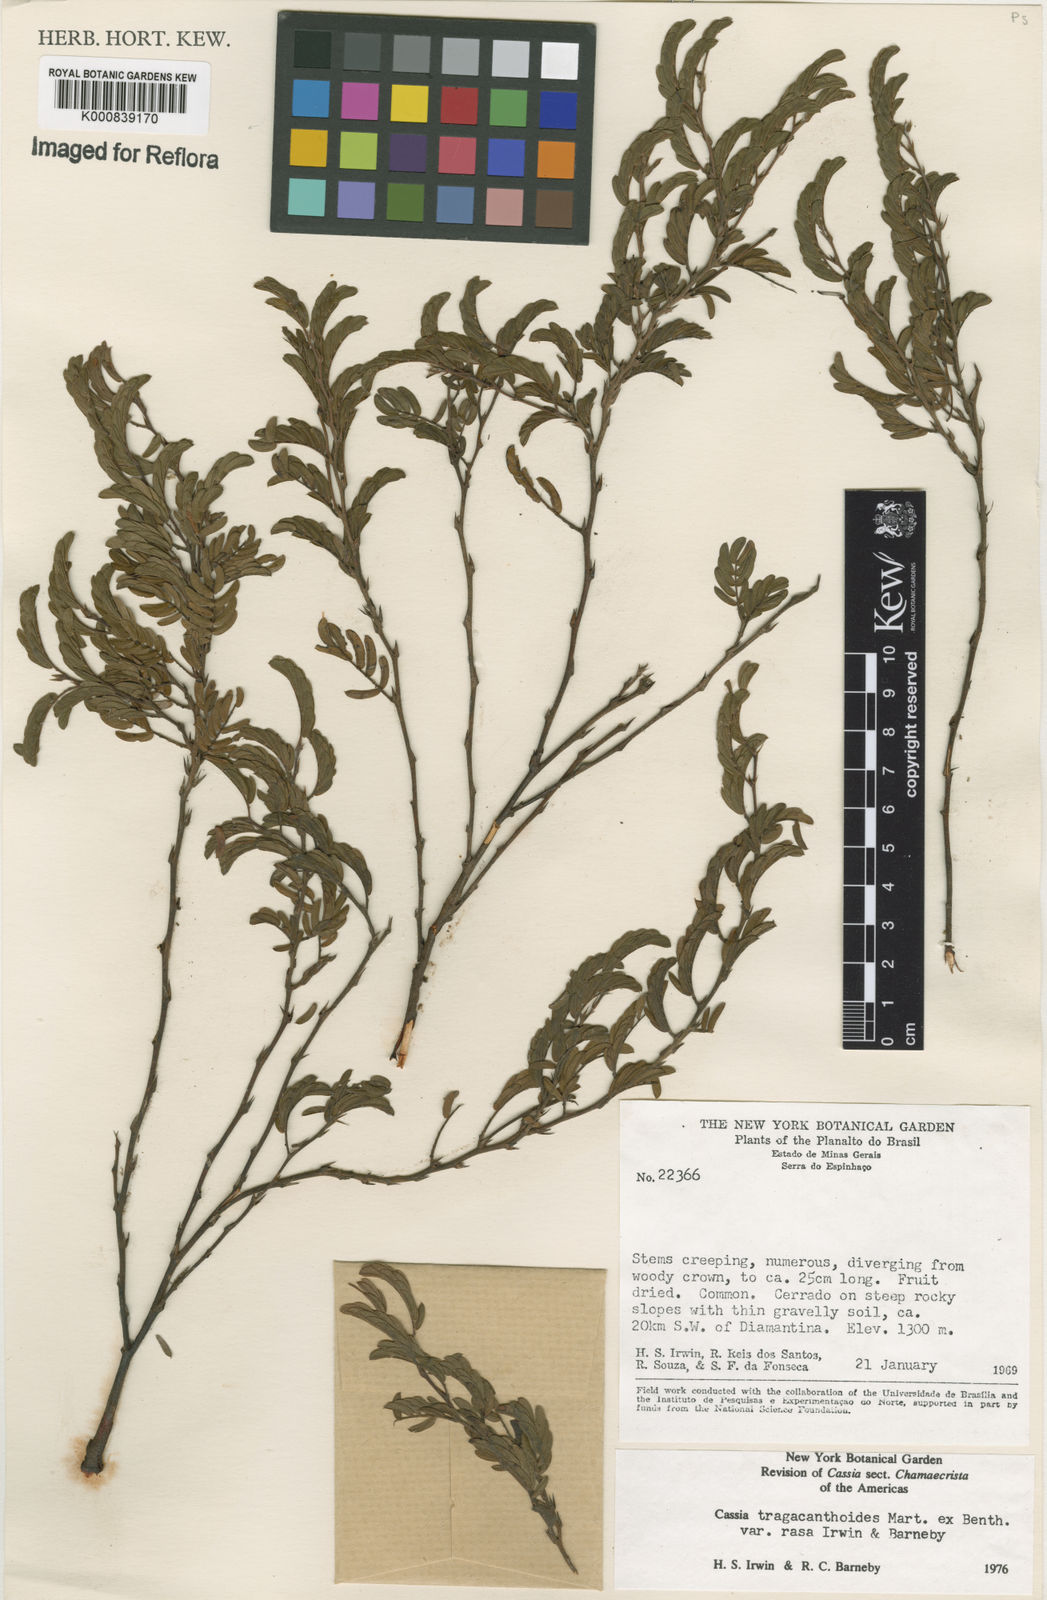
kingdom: Plantae
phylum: Tracheophyta
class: Magnoliopsida
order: Fabales
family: Fabaceae
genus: Chamaecrista
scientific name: Chamaecrista tragacanthoides
